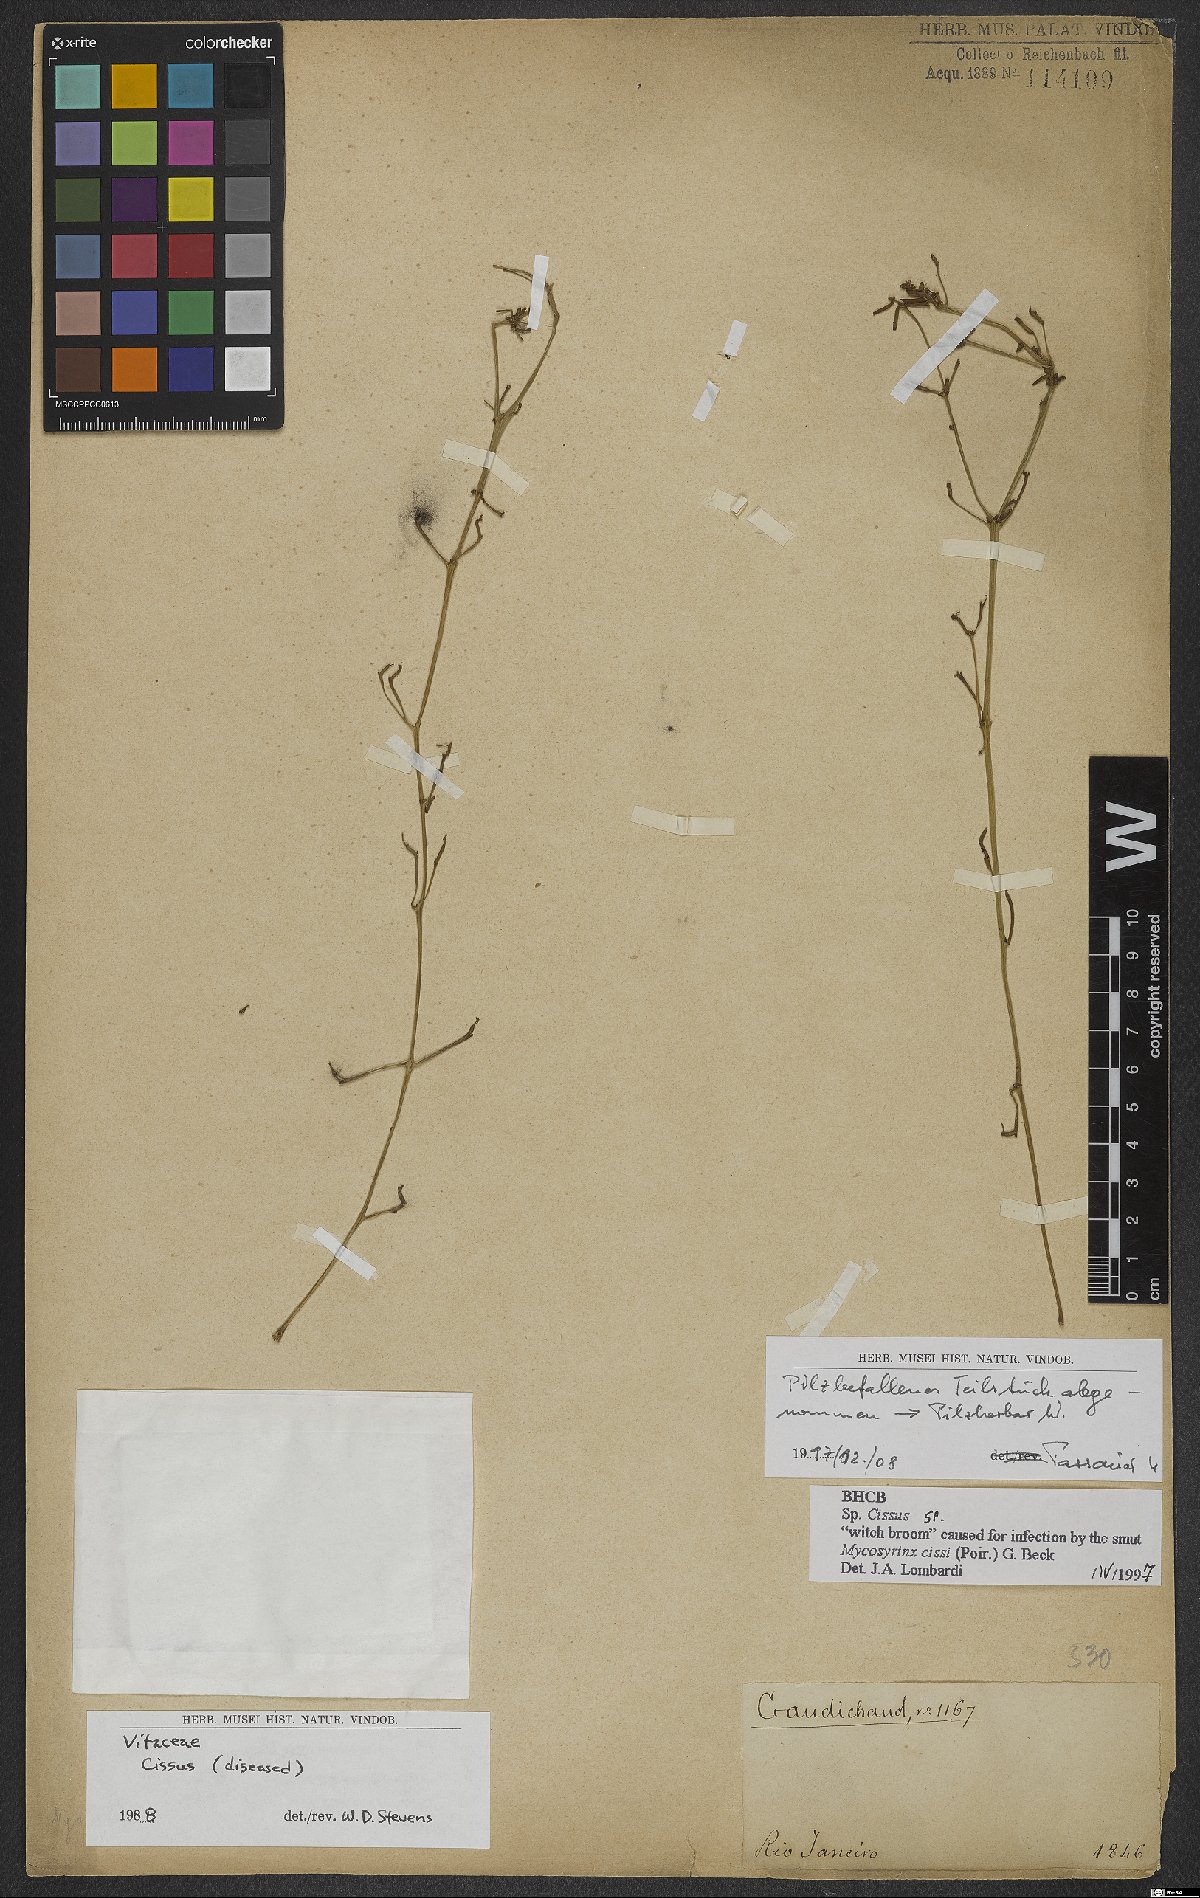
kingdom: Plantae
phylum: Tracheophyta
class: Magnoliopsida
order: Vitales
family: Vitaceae
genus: Cissus
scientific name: Cissus
